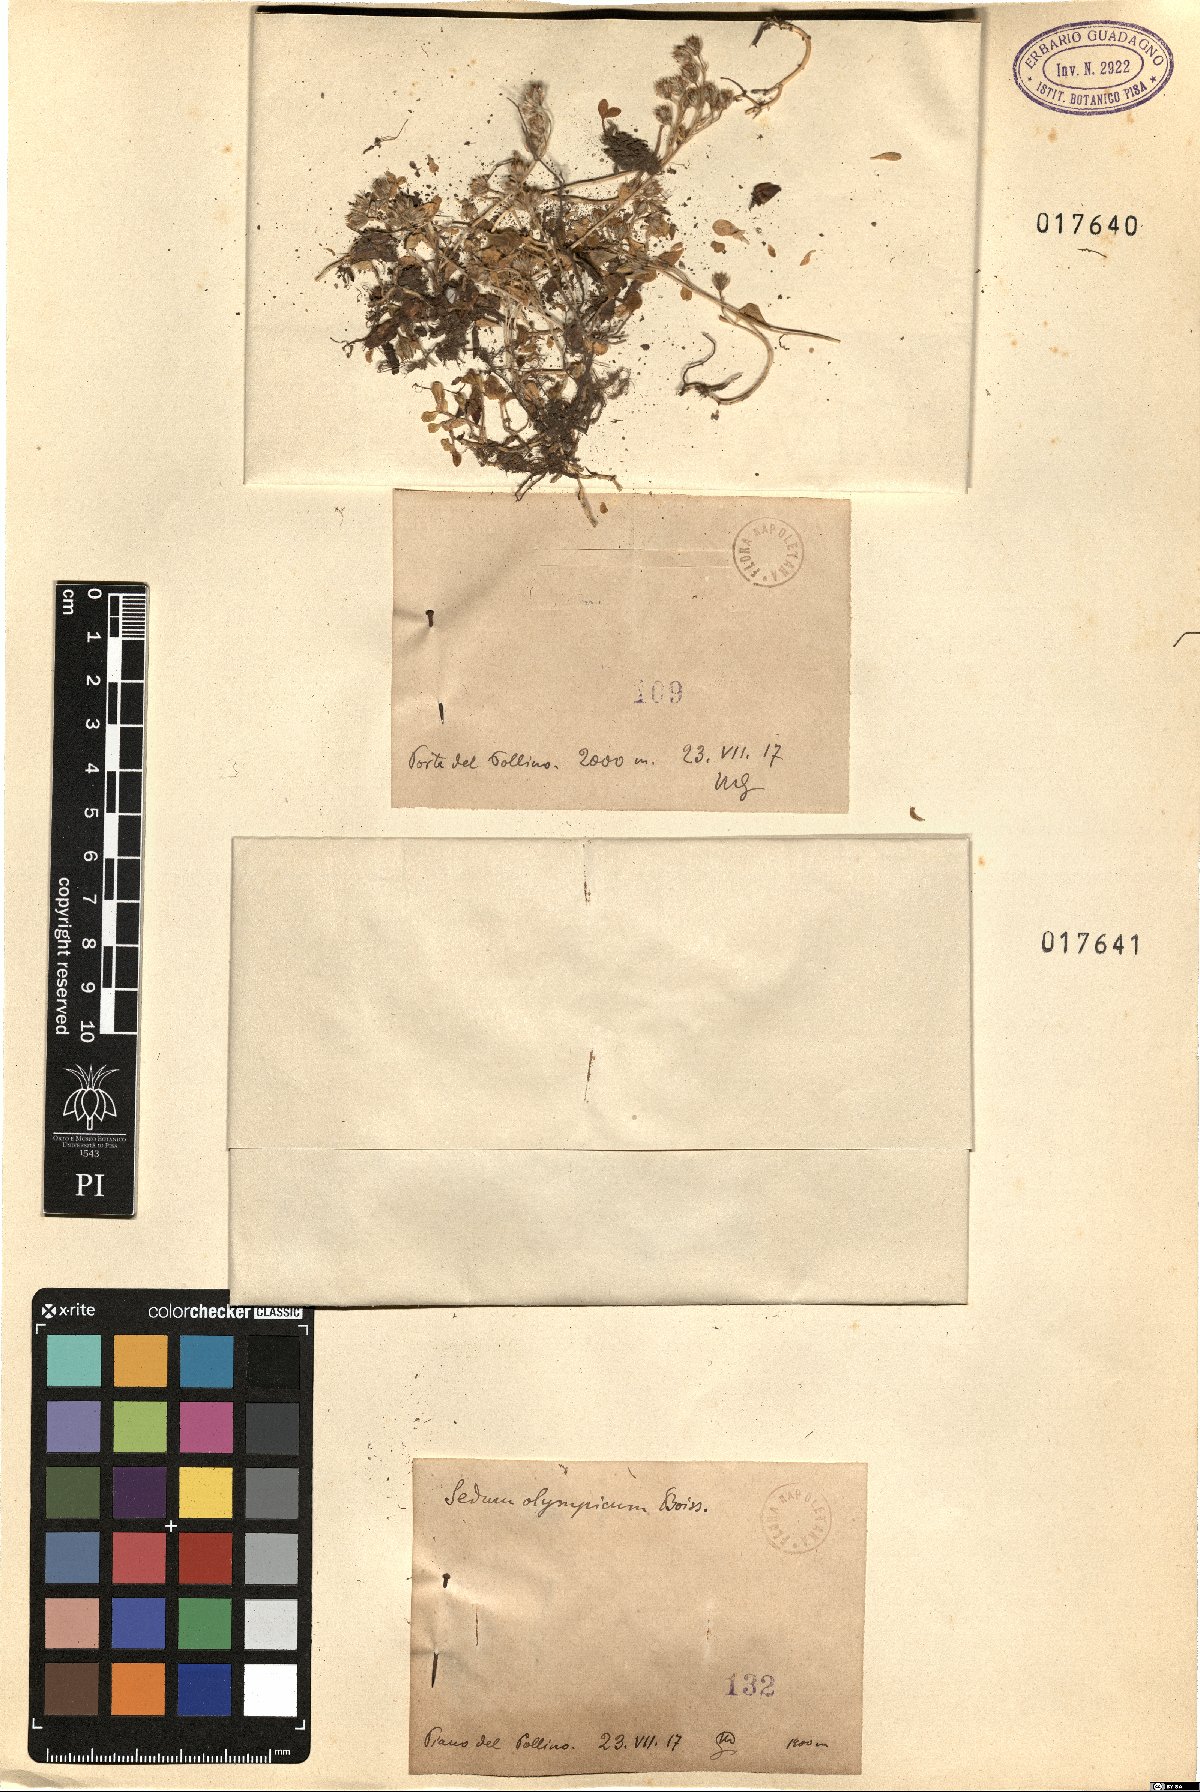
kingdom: Plantae
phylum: Tracheophyta
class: Magnoliopsida
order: Saxifragales
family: Crassulaceae
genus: Sedum
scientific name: Sedum
